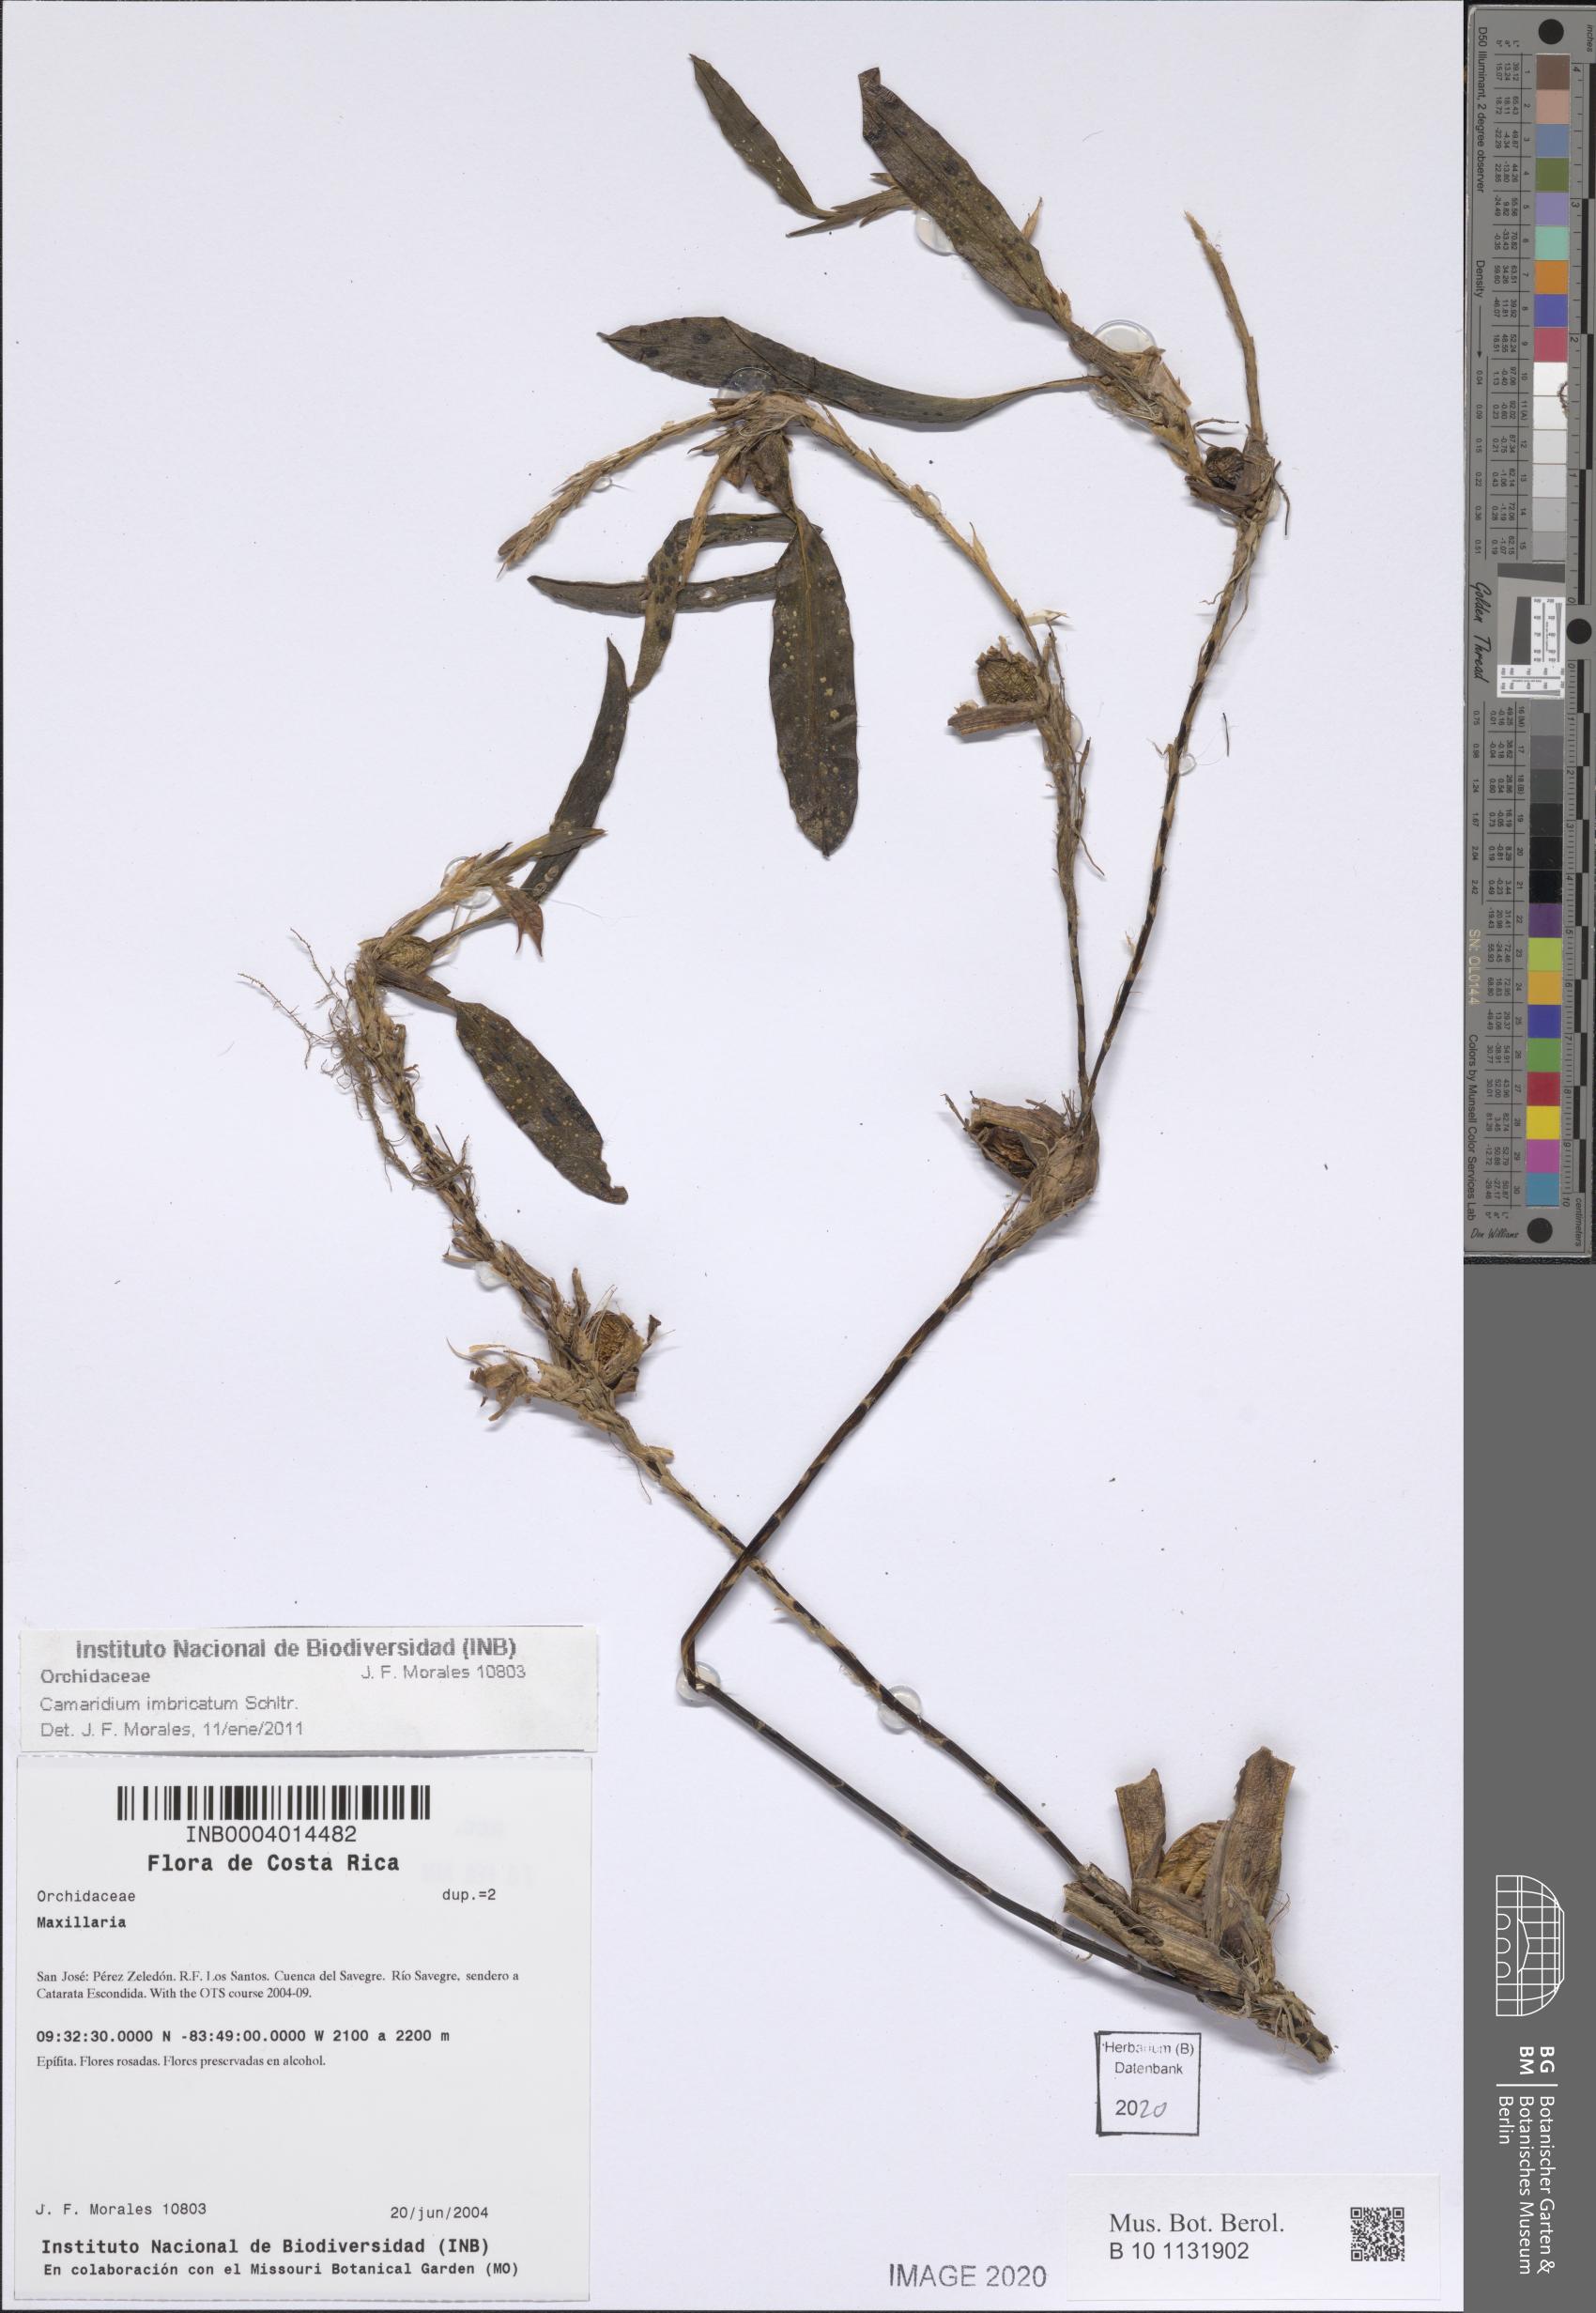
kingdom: Plantae
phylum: Tracheophyta
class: Liliopsida
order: Asparagales
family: Orchidaceae
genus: Maxillaria
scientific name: Maxillaria imbricata
